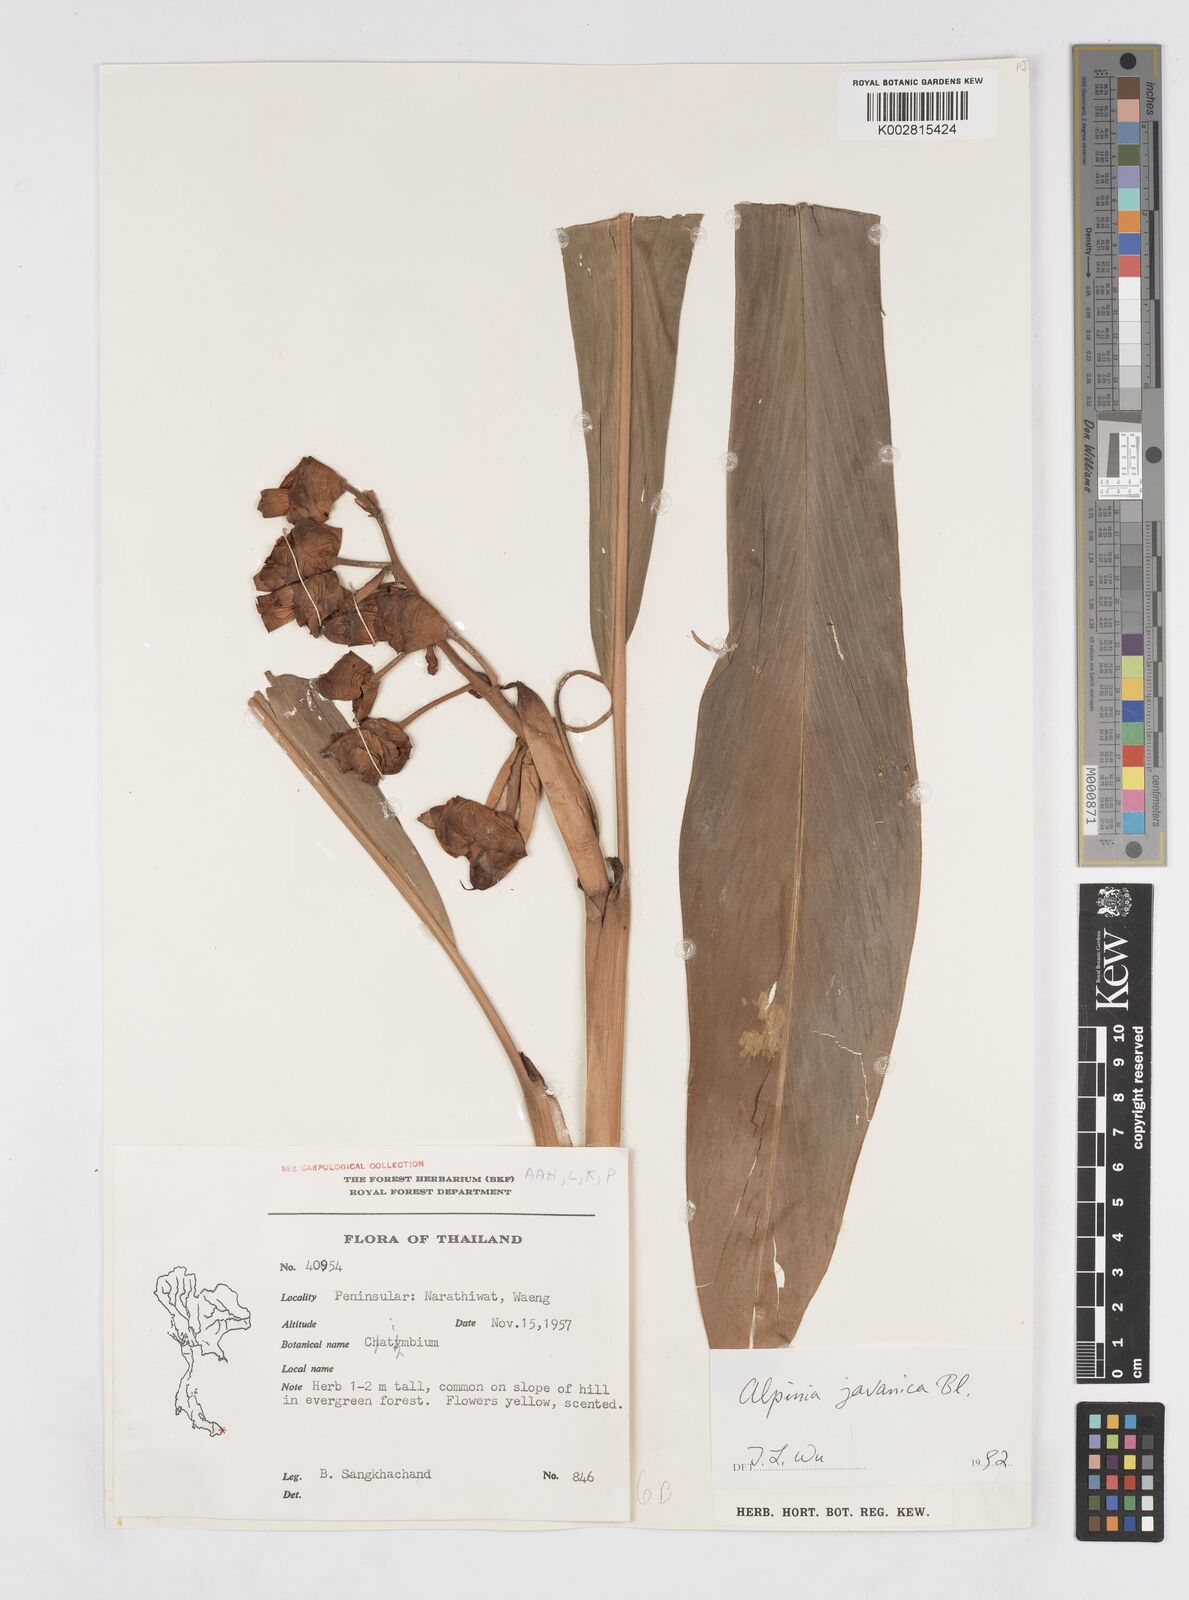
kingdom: Plantae
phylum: Tracheophyta
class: Liliopsida
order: Zingiberales
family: Zingiberaceae
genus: Alpinia
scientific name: Alpinia javanica
